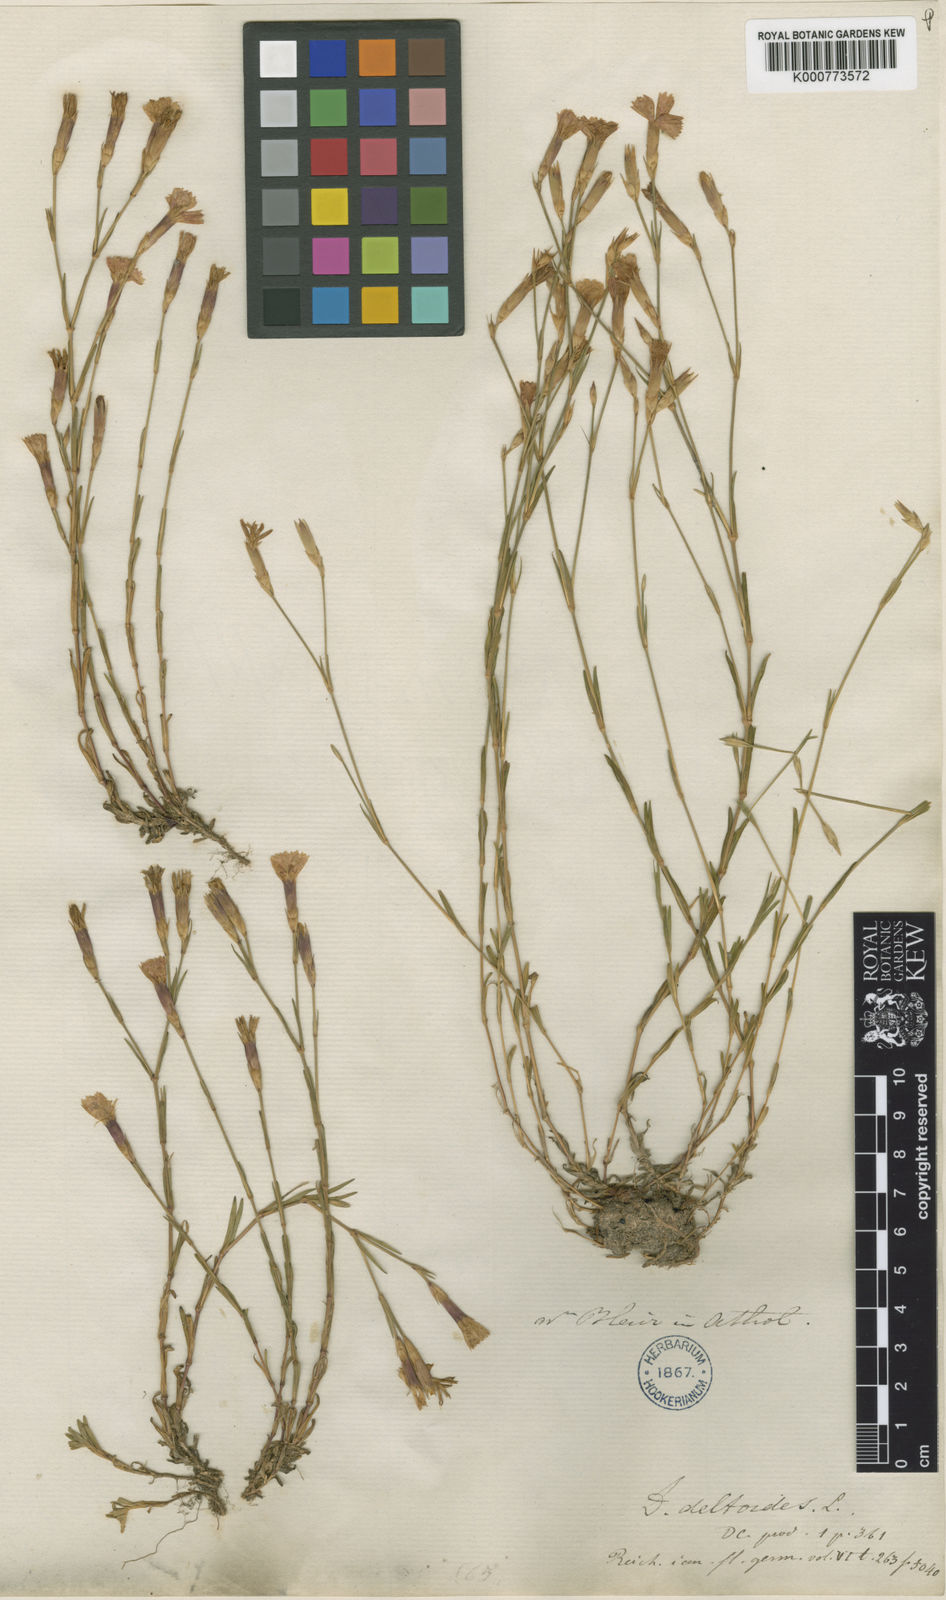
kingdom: Plantae
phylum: Tracheophyta
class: Magnoliopsida
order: Caryophyllales
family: Caryophyllaceae
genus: Dianthus
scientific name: Dianthus deltoides
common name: Maiden pink
